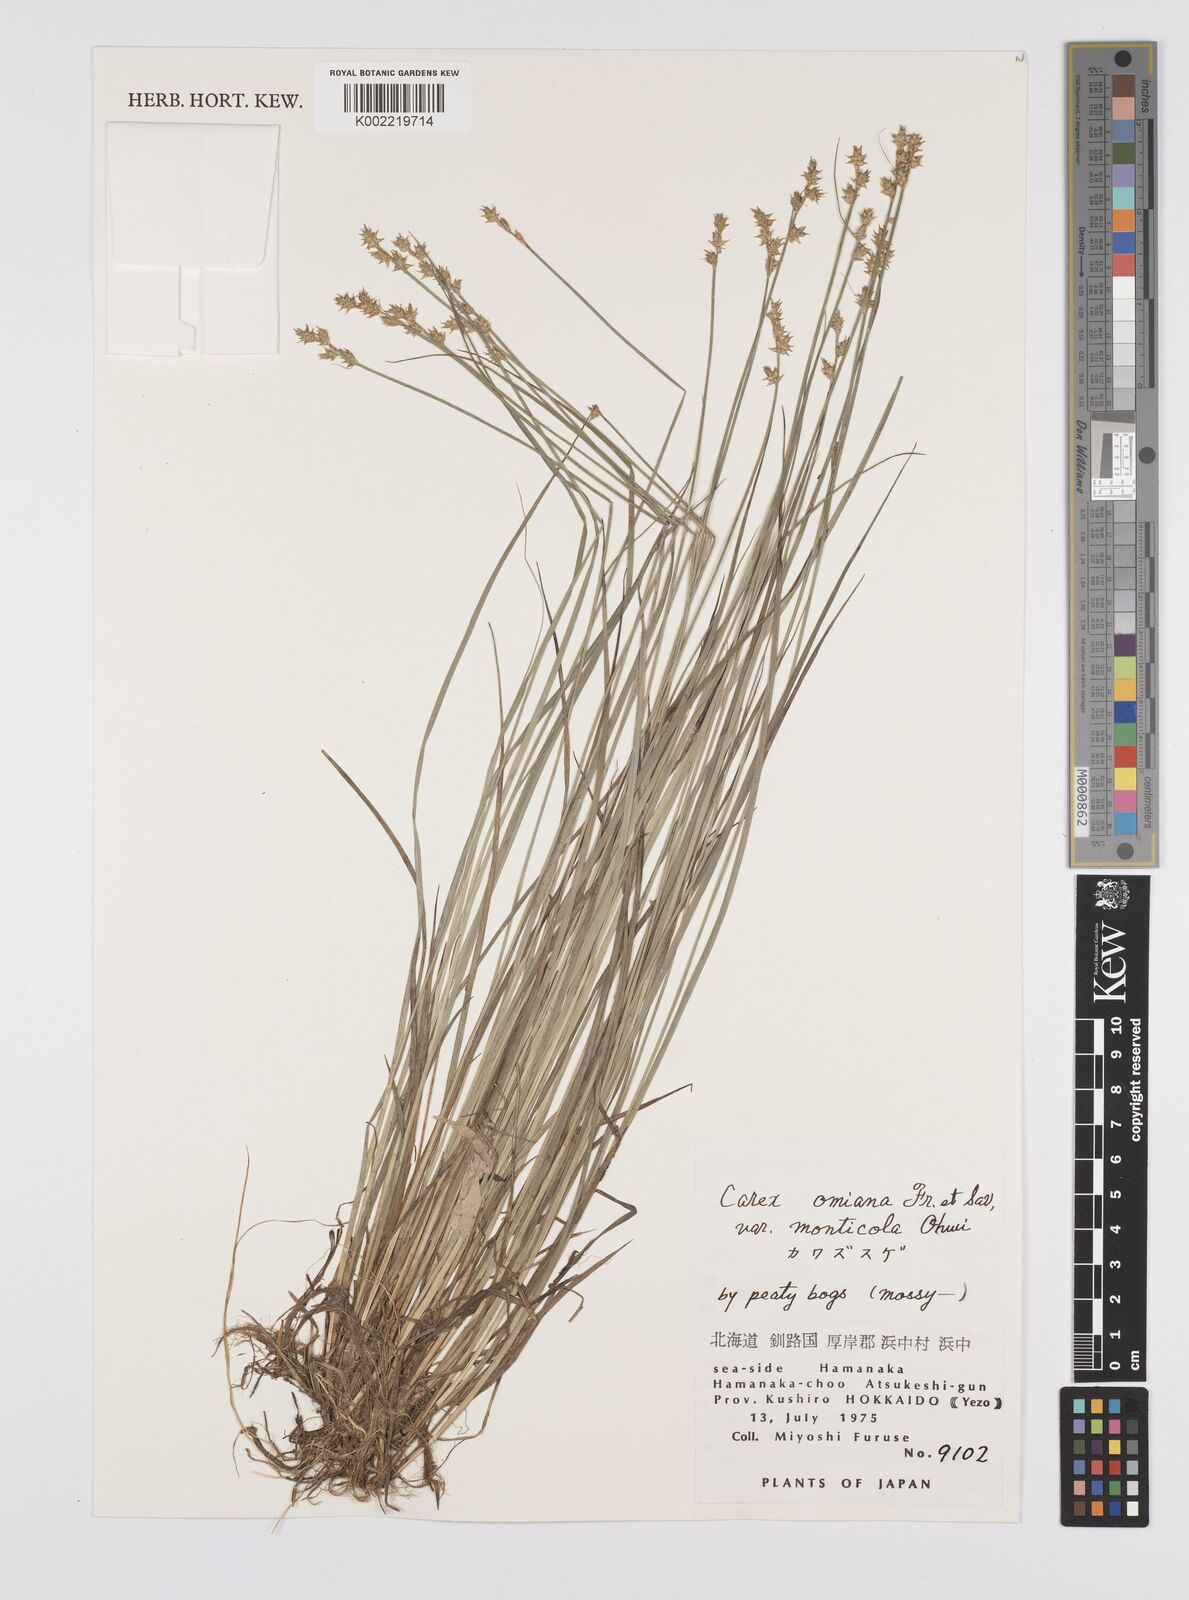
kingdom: Plantae
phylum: Tracheophyta
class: Liliopsida
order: Poales
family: Cyperaceae
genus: Carex
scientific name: Carex omiana
